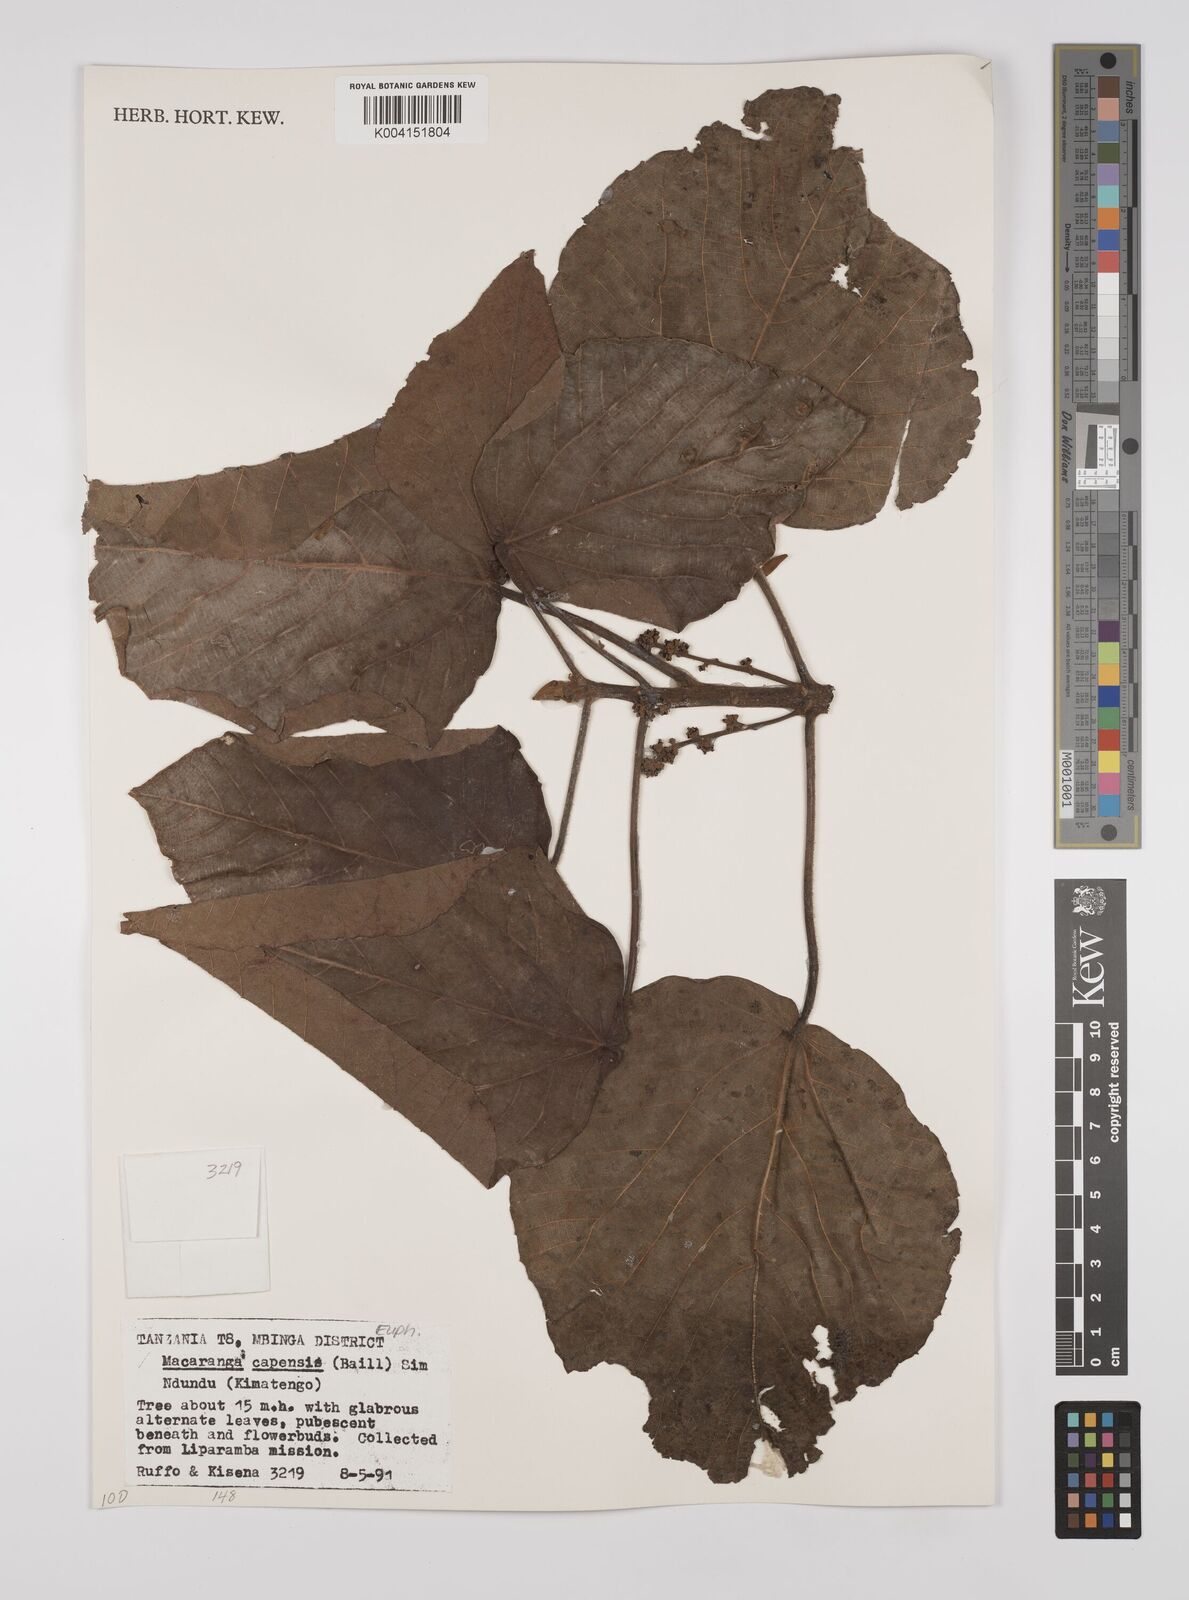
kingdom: Plantae
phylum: Tracheophyta
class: Magnoliopsida
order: Malpighiales
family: Euphorbiaceae
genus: Macaranga
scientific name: Macaranga capensis
